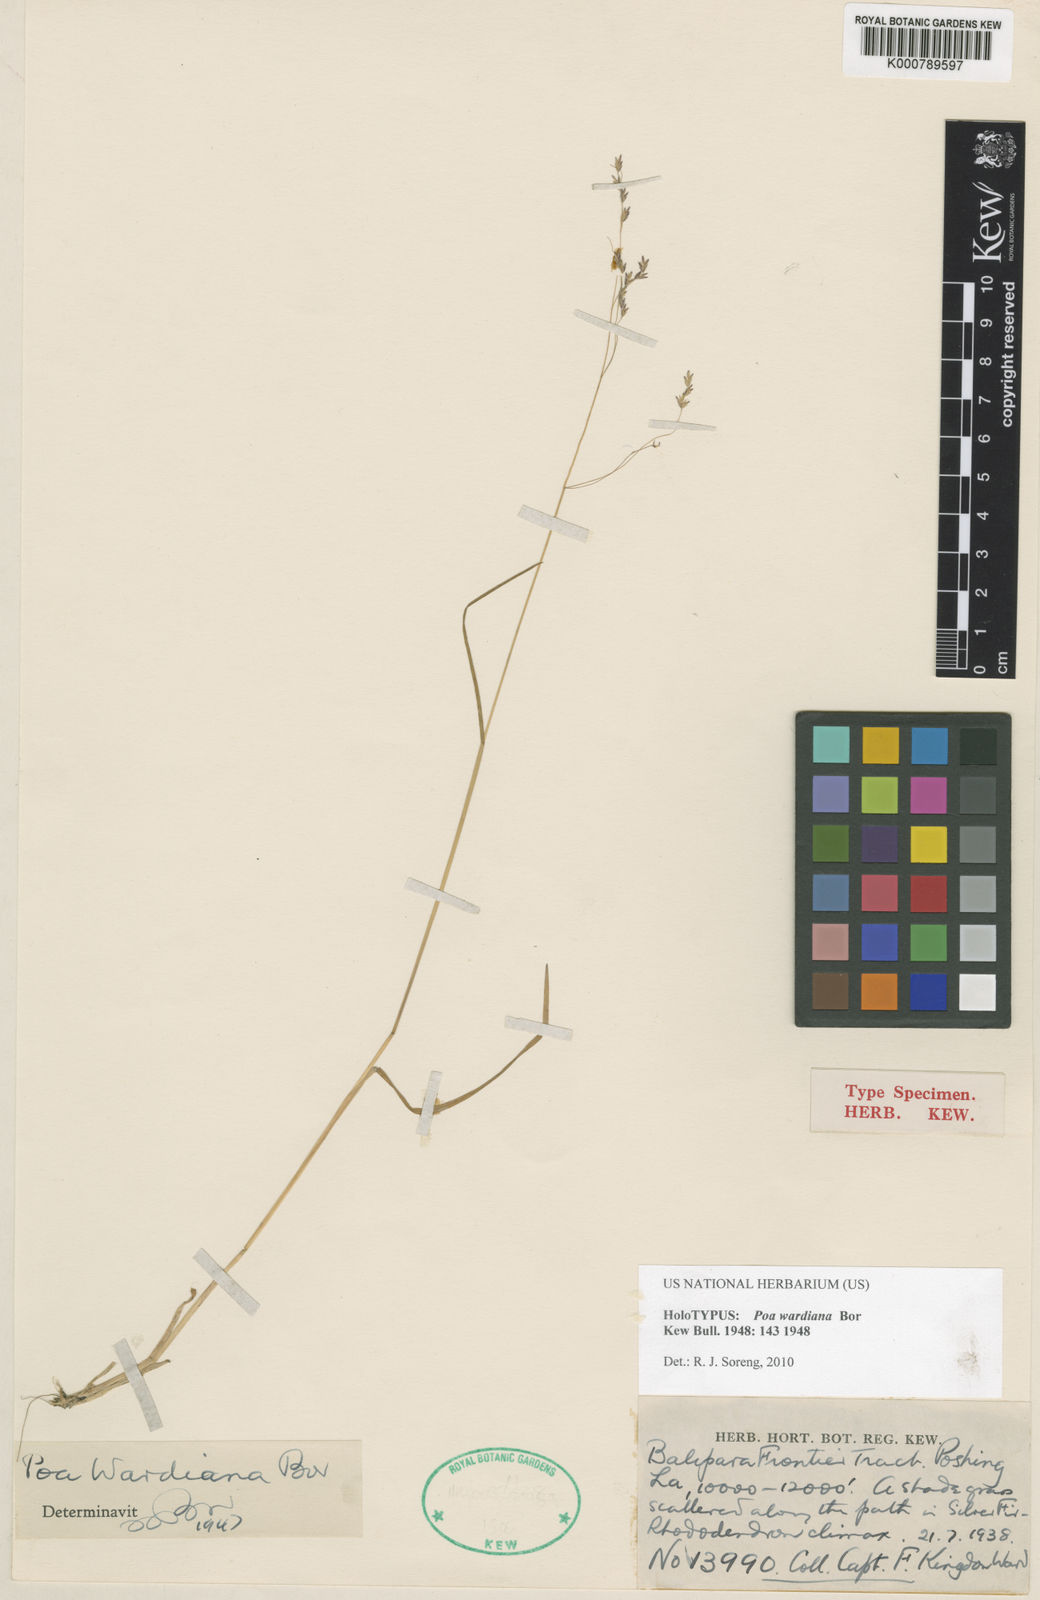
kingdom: Plantae
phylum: Tracheophyta
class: Liliopsida
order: Poales
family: Poaceae
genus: Poa
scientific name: Poa wardiana
